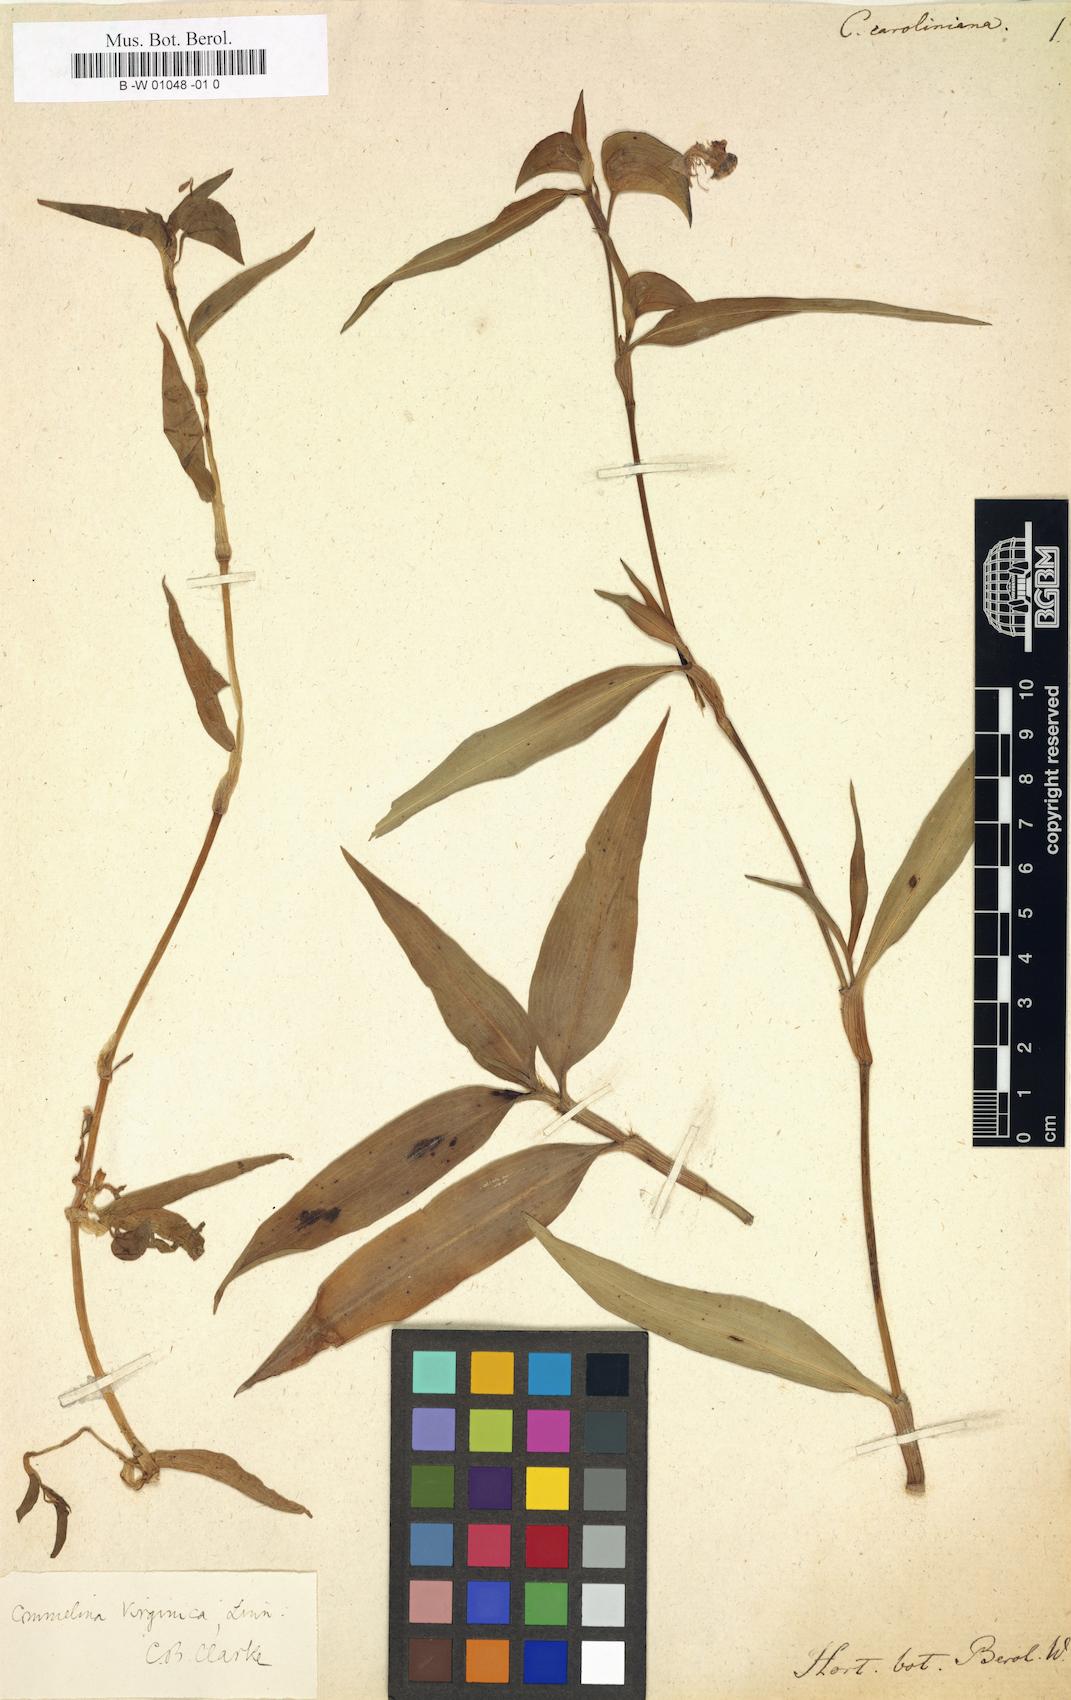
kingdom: Plantae
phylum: Tracheophyta
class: Liliopsida
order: Commelinales
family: Commelinaceae
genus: Commelina
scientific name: Commelina caroliniana
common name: Carolina dayflower
